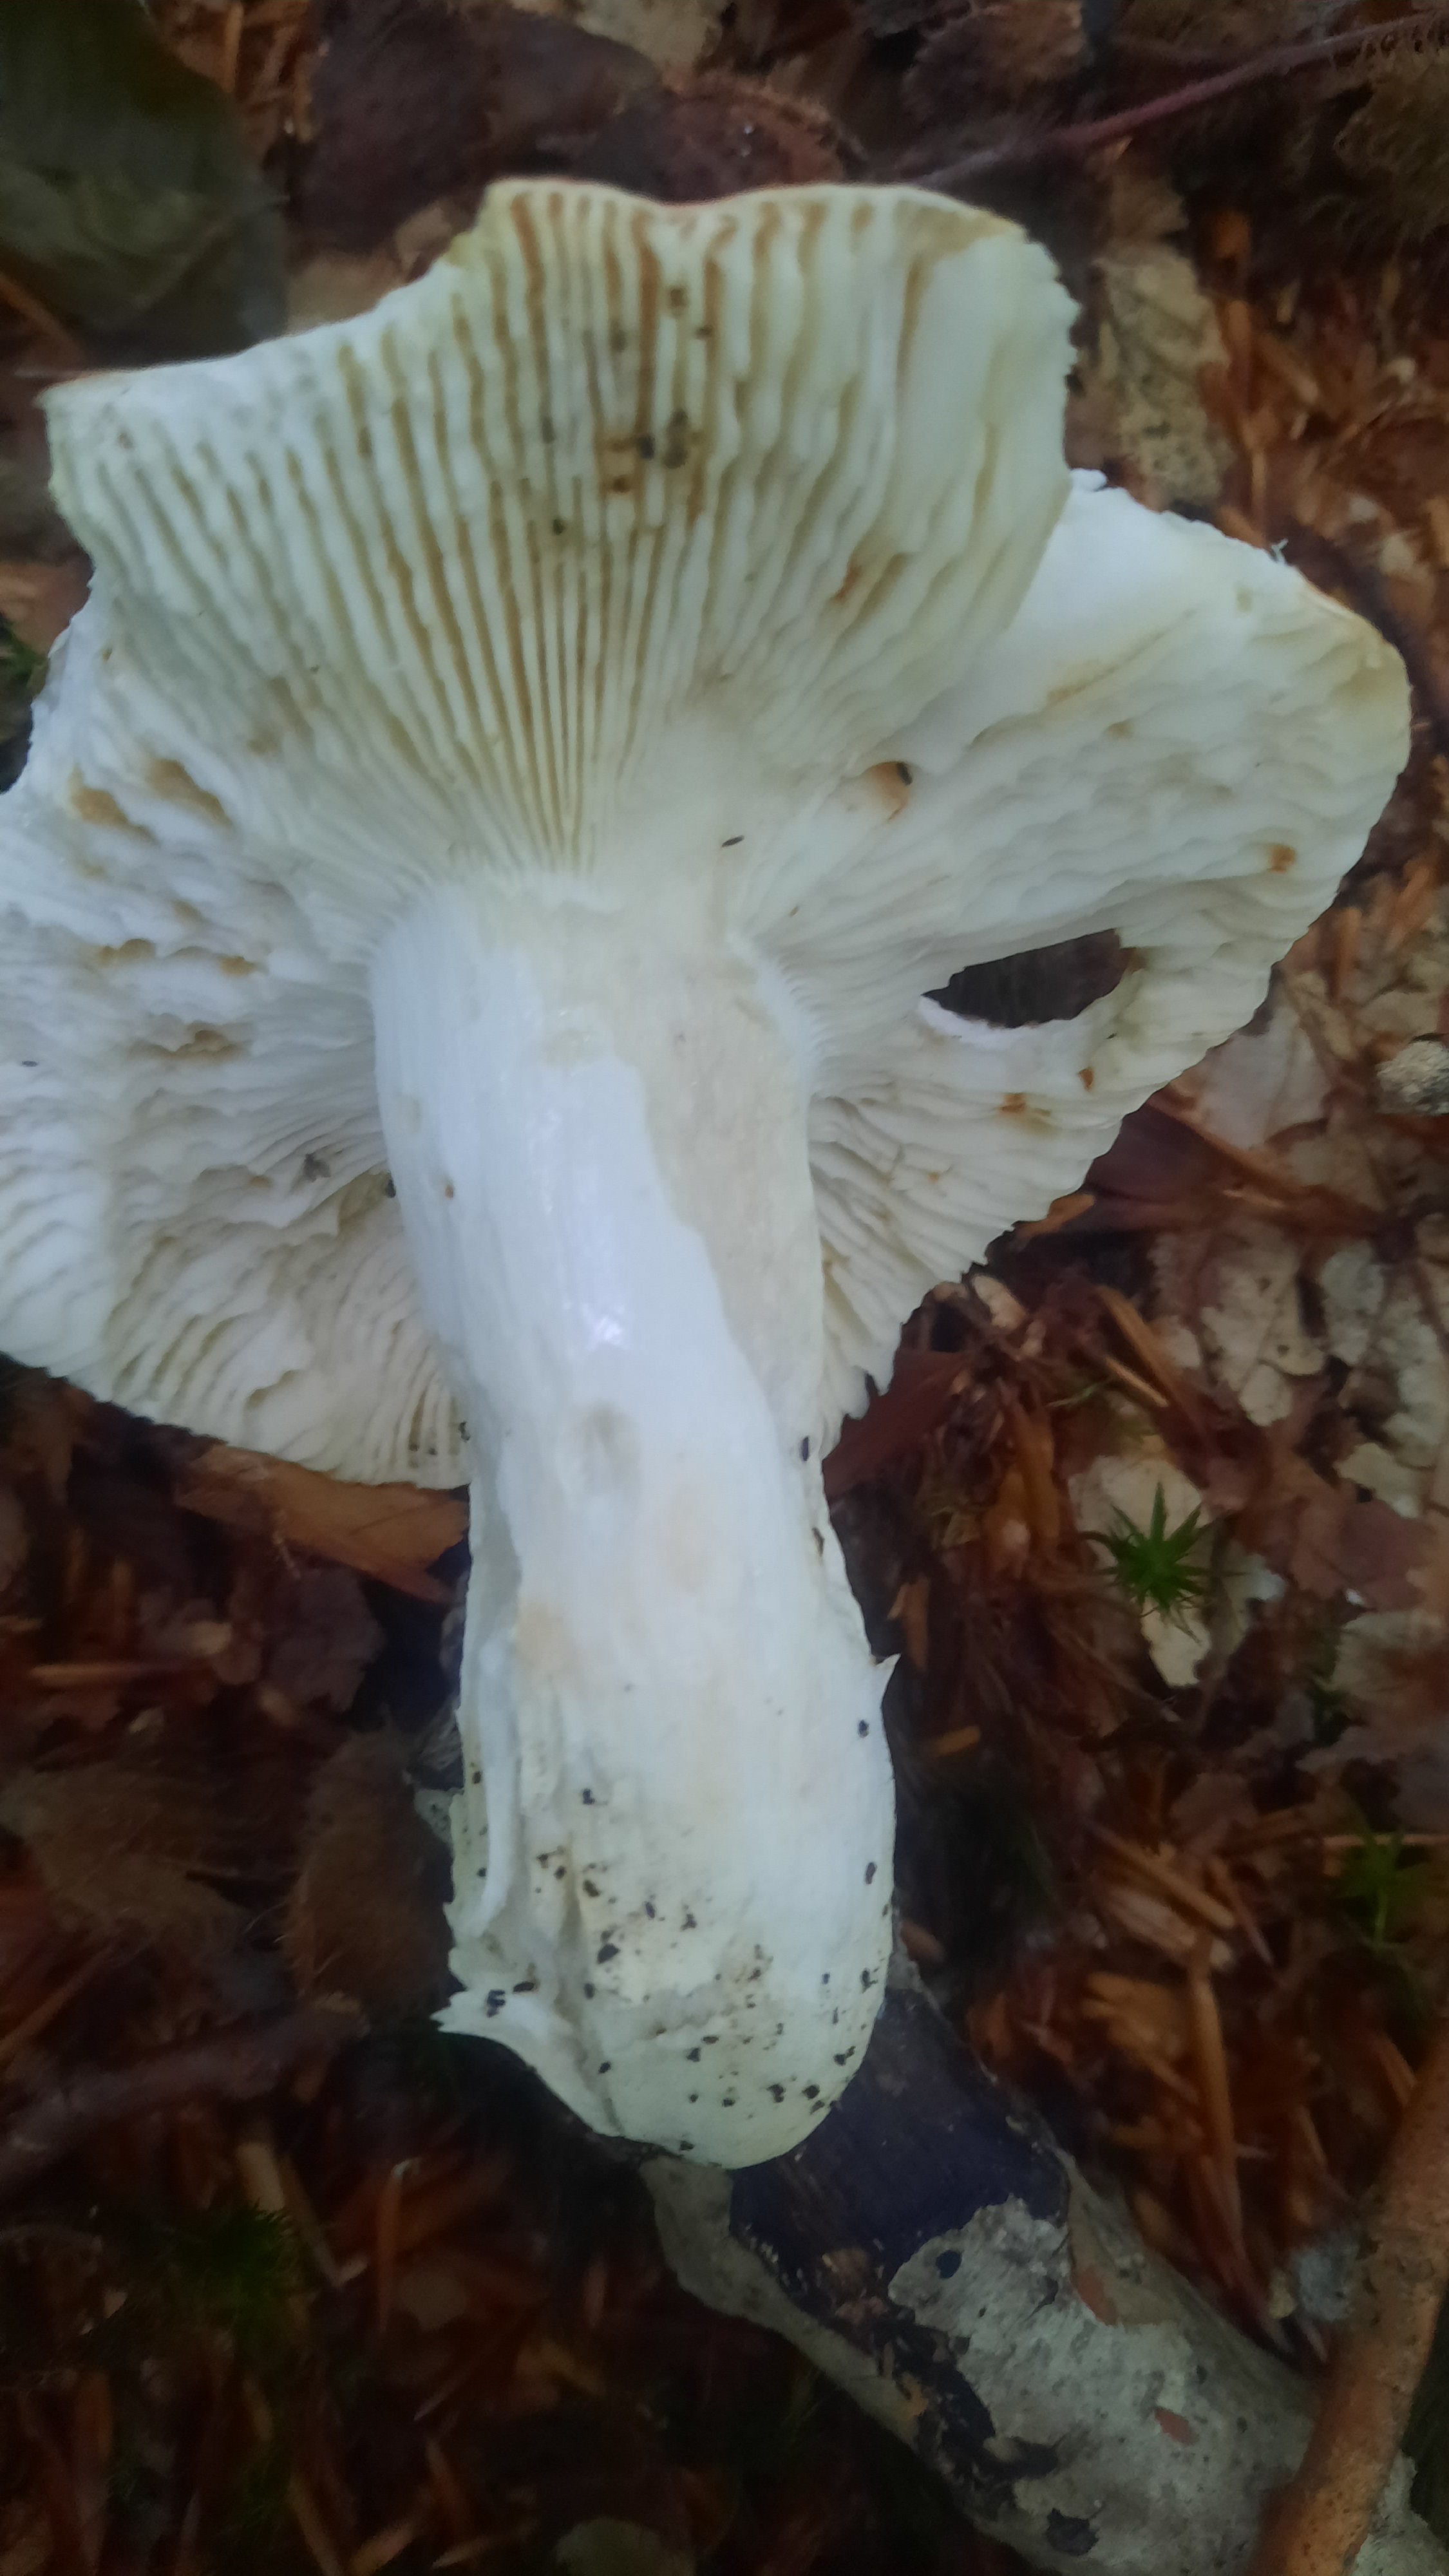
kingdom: Fungi
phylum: Basidiomycota
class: Agaricomycetes
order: Russulales
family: Russulaceae
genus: Russula
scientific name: Russula
